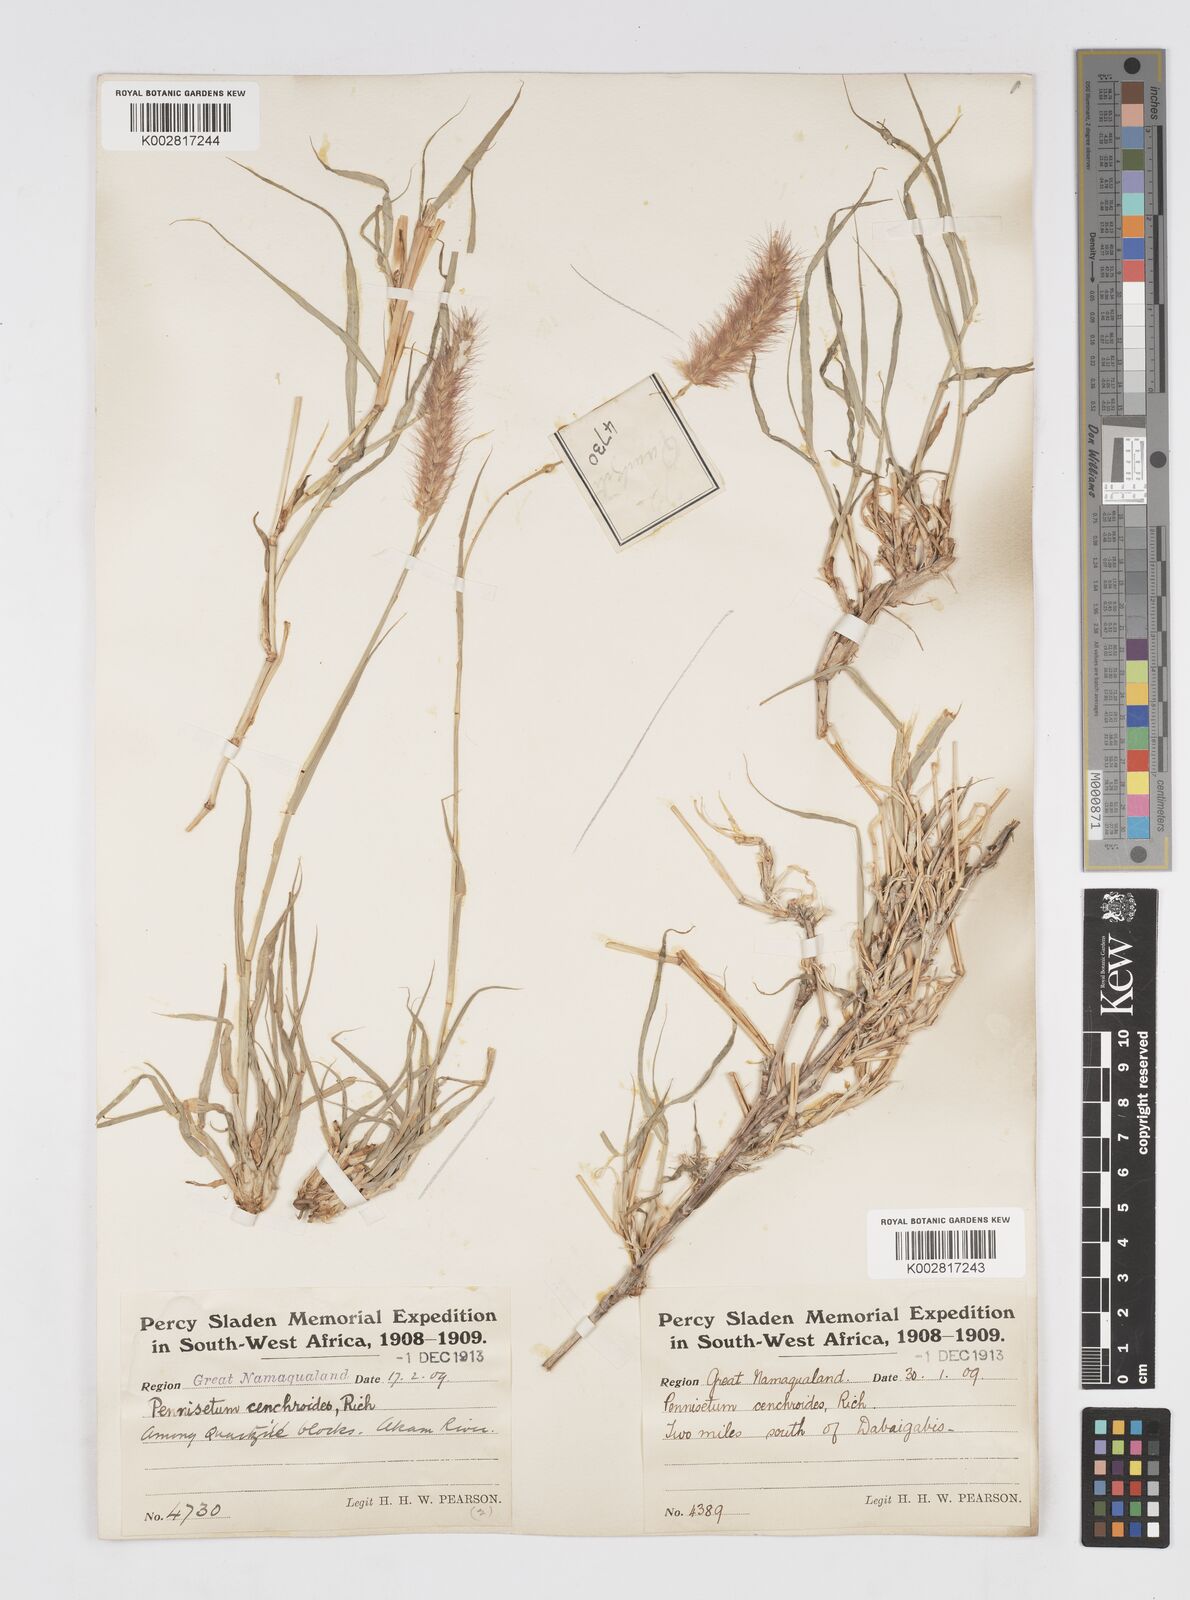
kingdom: Plantae
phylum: Tracheophyta
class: Liliopsida
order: Poales
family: Poaceae
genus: Cenchrus
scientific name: Cenchrus ciliaris
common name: Buffelgrass
